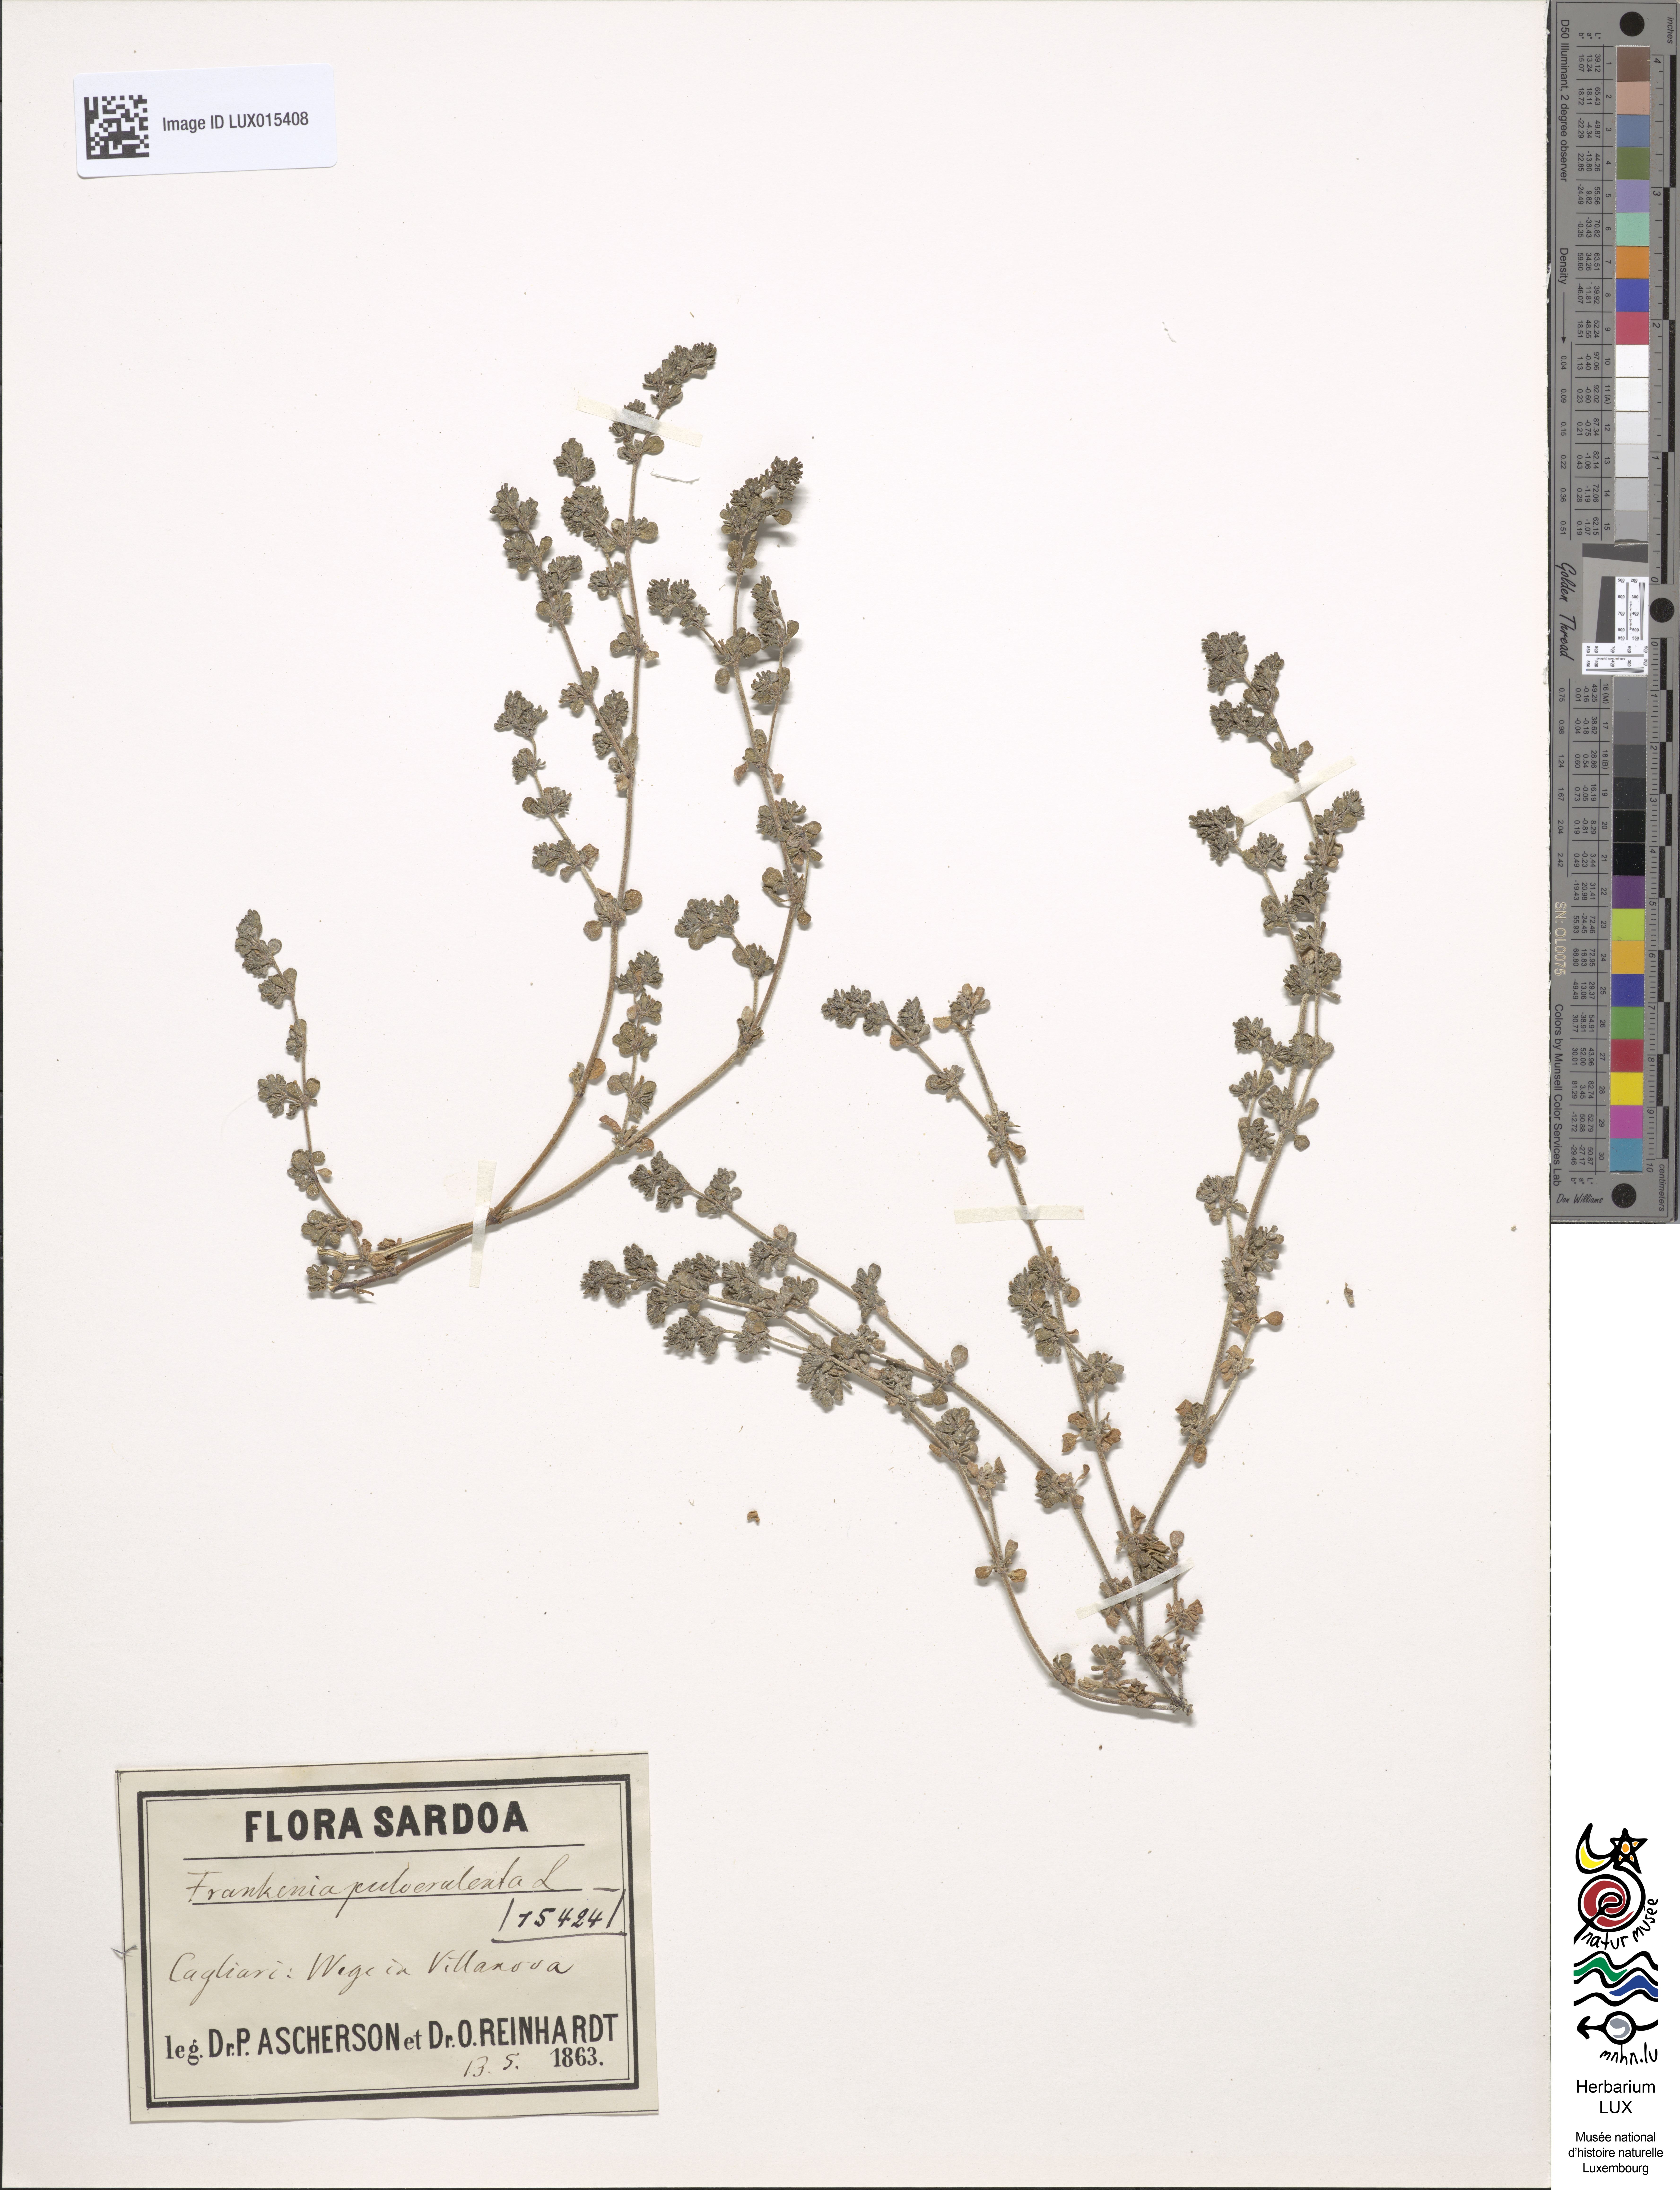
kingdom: Plantae
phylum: Tracheophyta
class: Magnoliopsida
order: Caryophyllales
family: Frankeniaceae
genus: Frankenia
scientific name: Frankenia pulverulenta
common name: European seaheath
